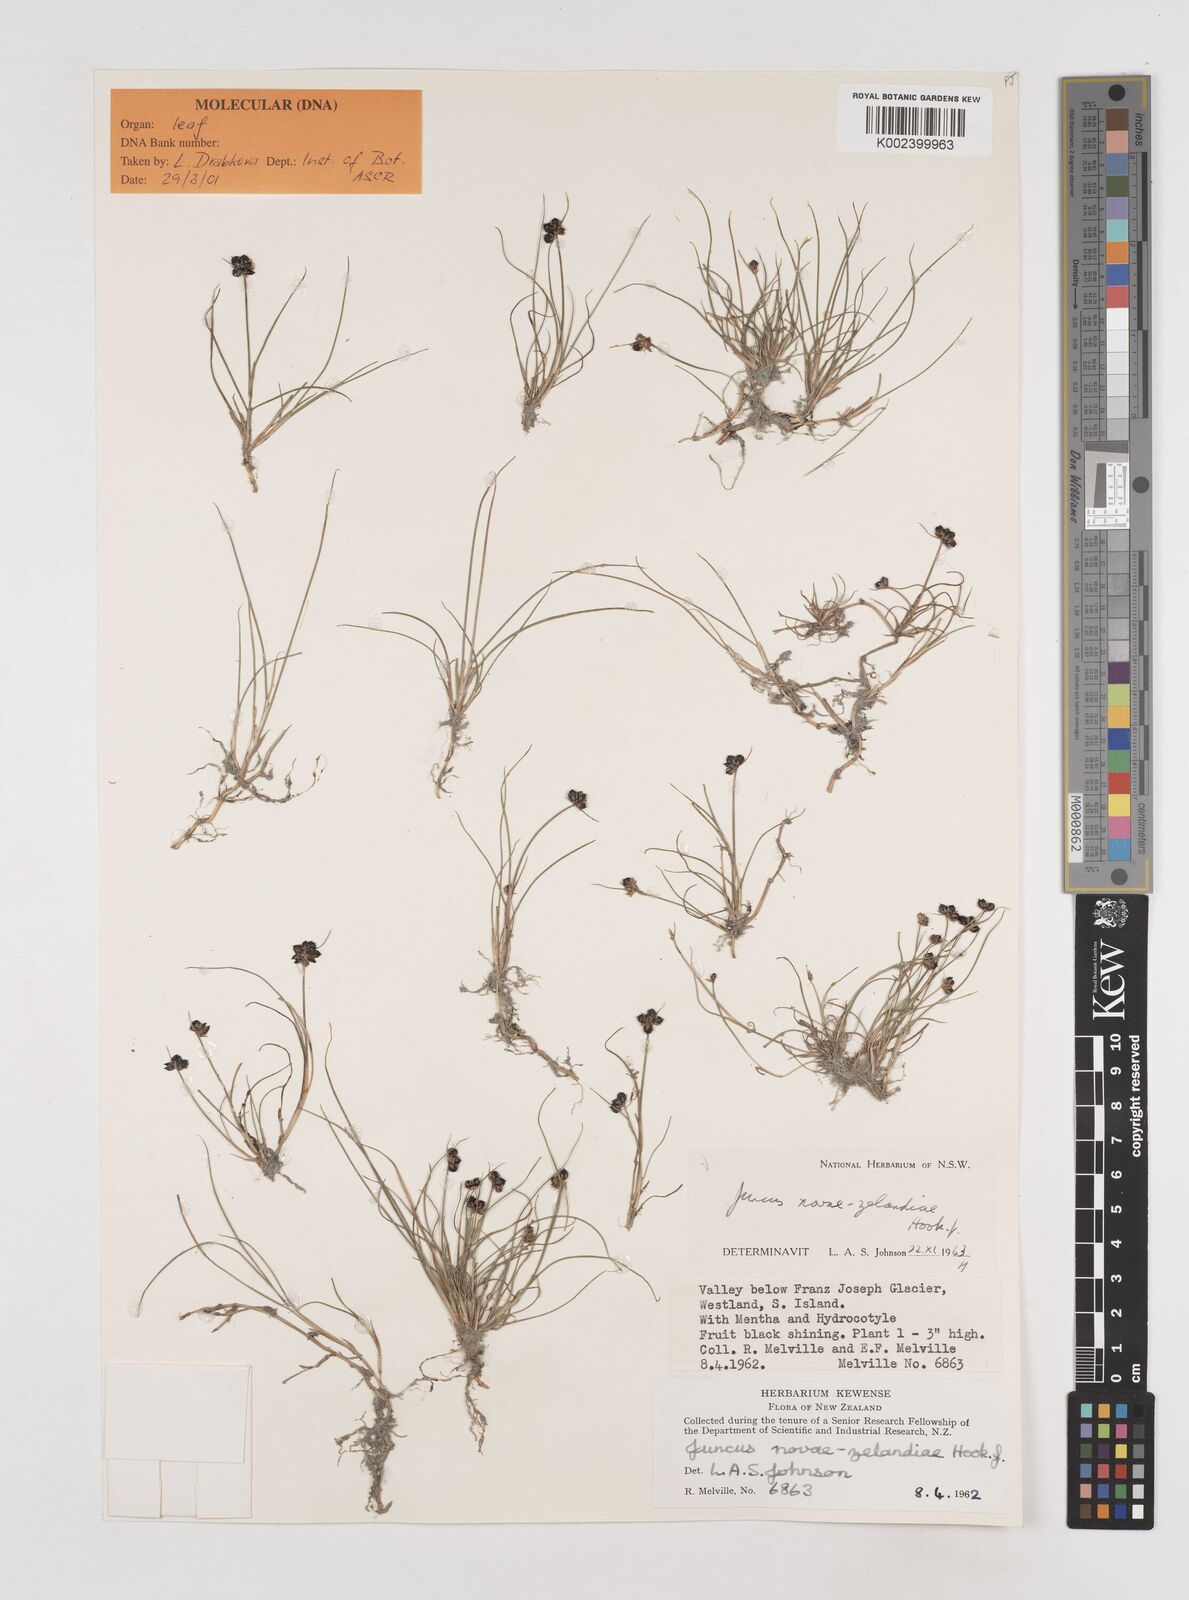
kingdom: Plantae
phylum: Tracheophyta
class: Liliopsida
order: Poales
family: Juncaceae
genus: Juncus
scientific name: Juncus novae-zelandiae
